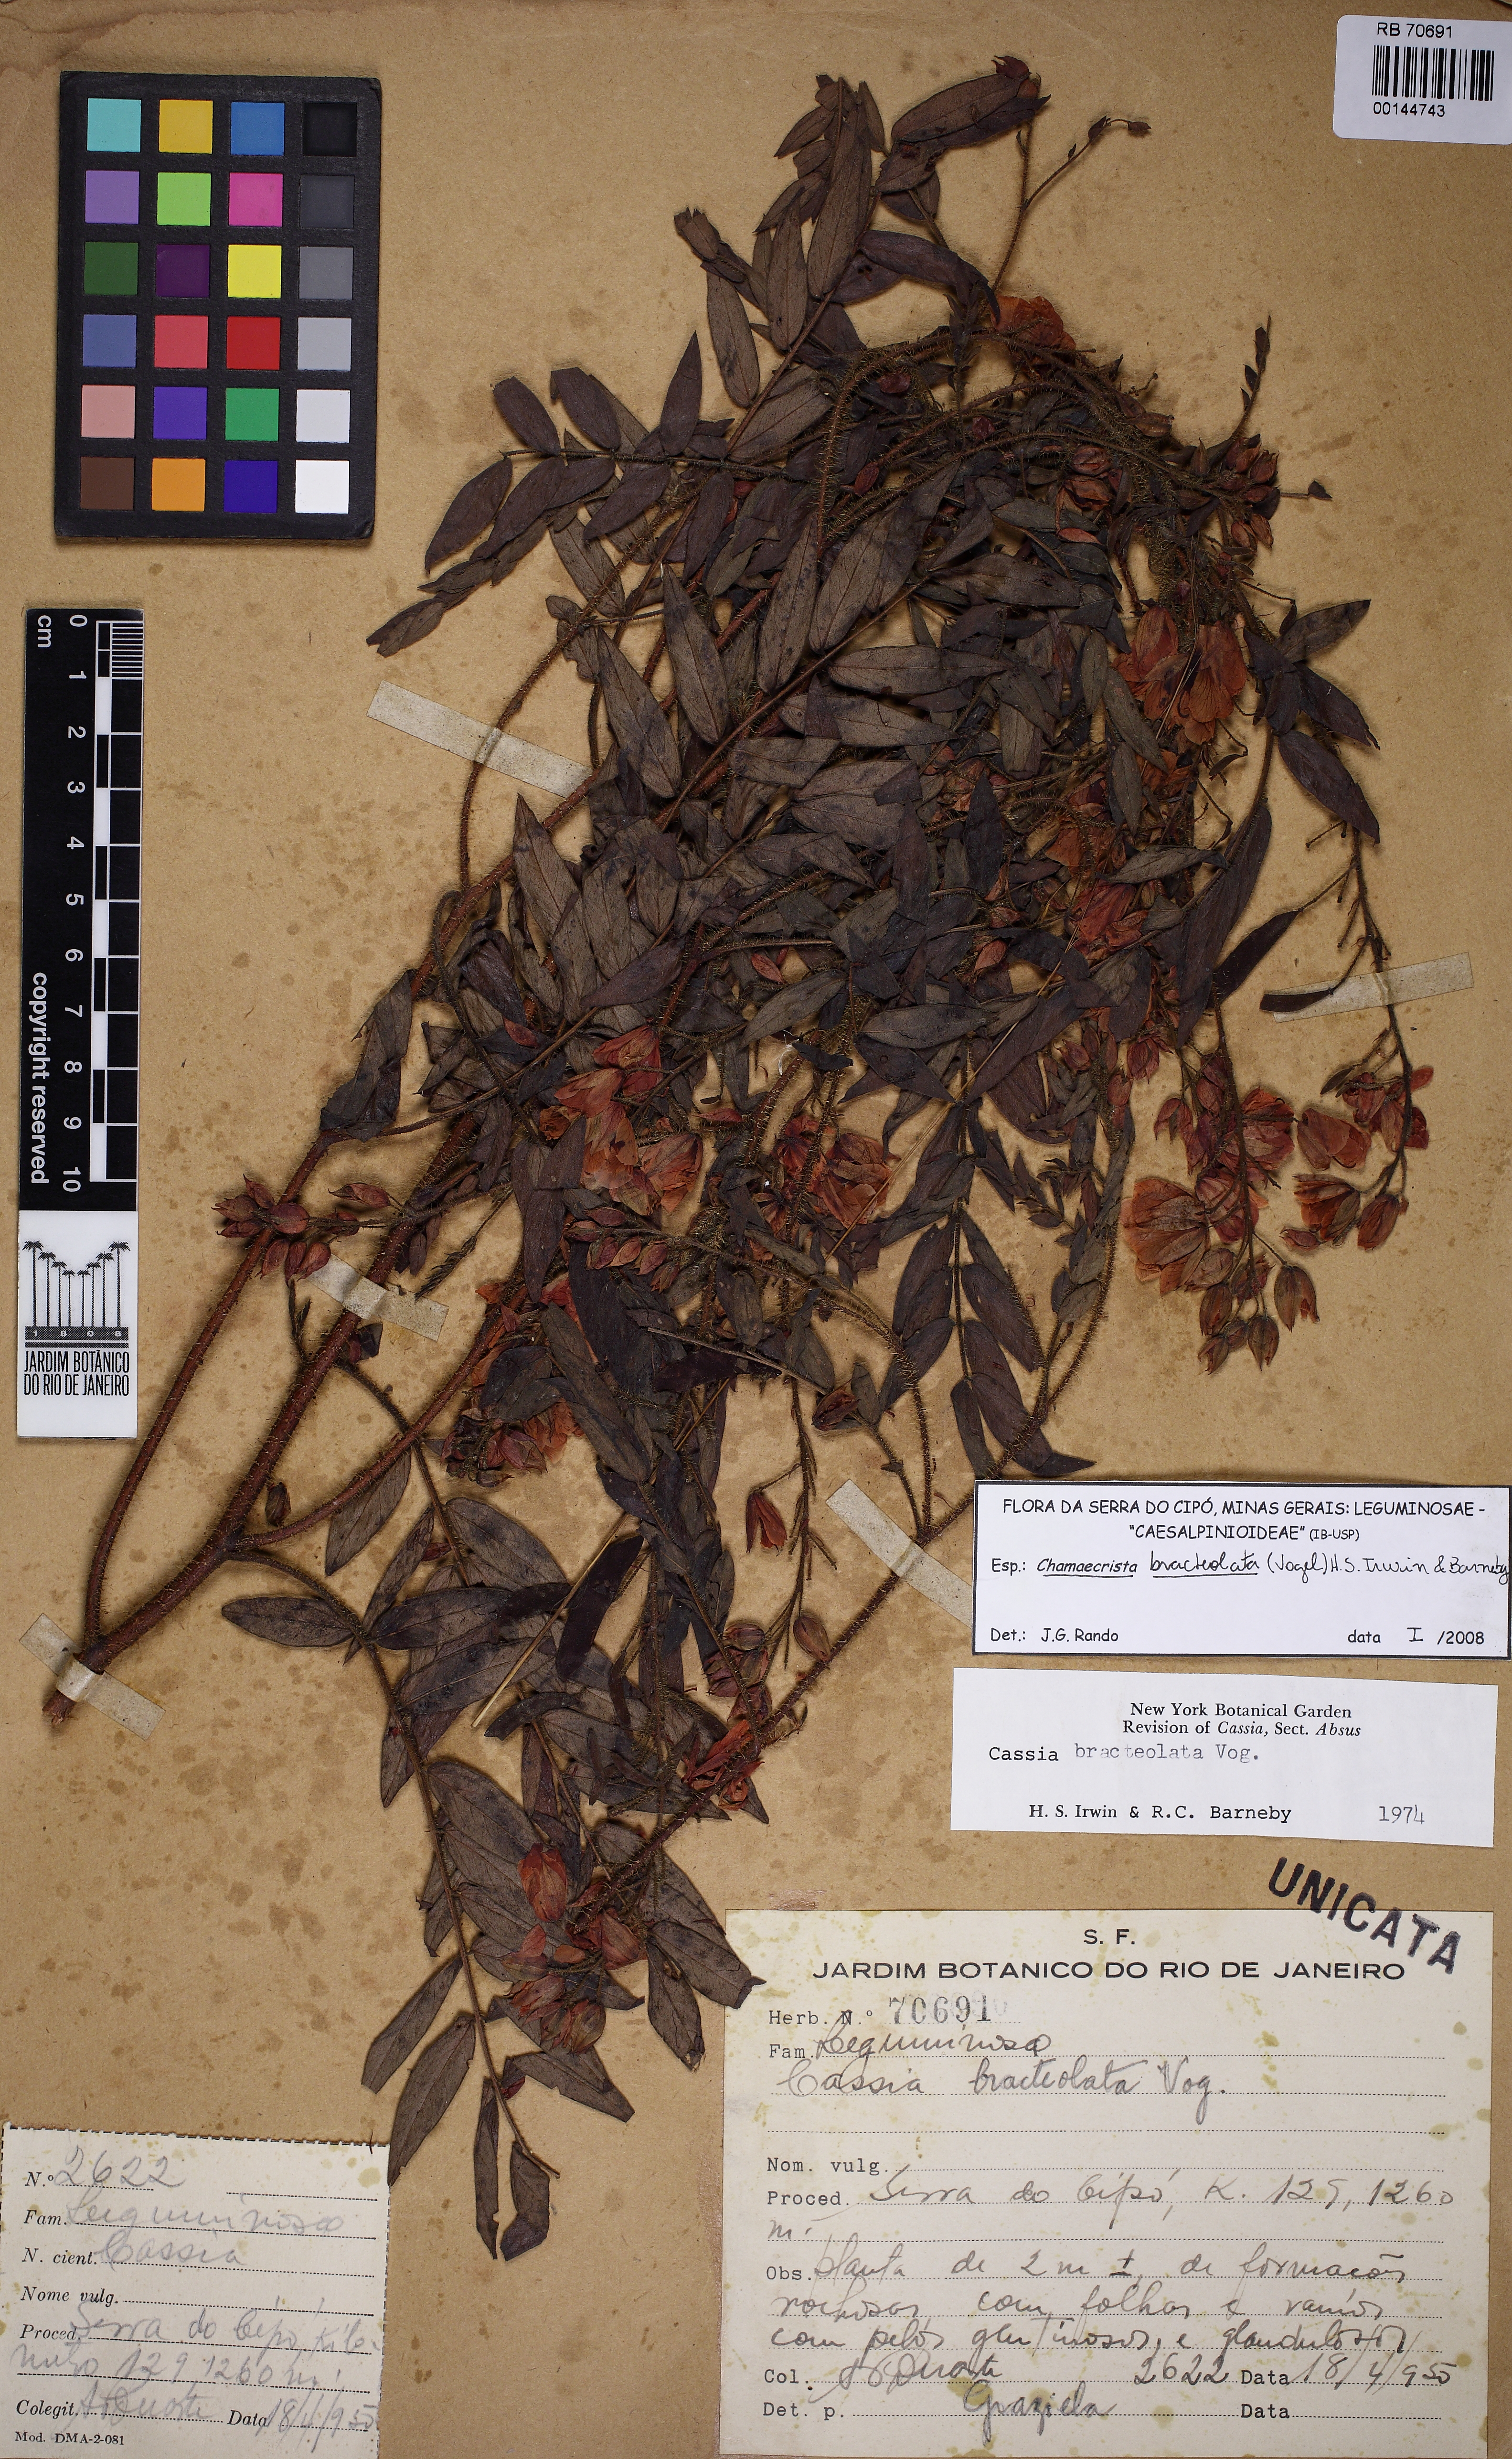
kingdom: Plantae
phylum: Tracheophyta
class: Magnoliopsida
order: Fabales
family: Fabaceae
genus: Chamaecrista
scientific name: Chamaecrista bracteolata
